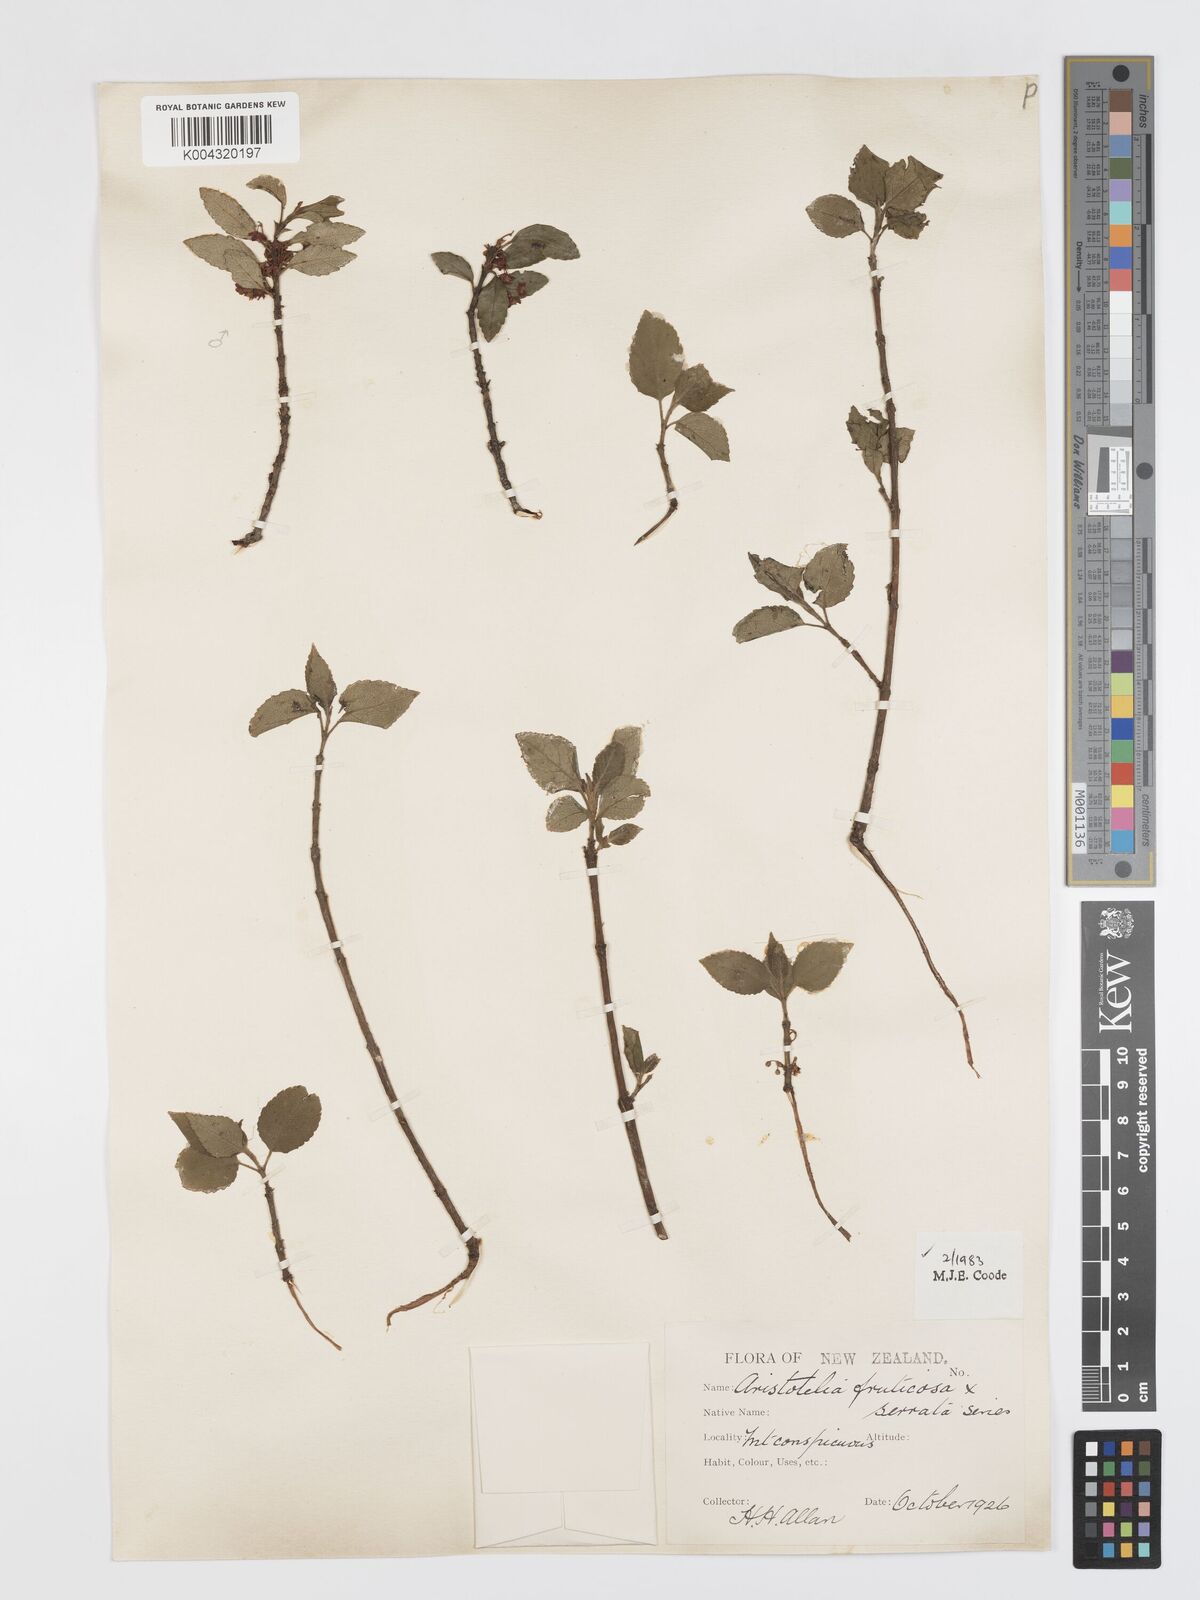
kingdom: Plantae
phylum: Tracheophyta
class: Magnoliopsida
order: Oxalidales
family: Elaeocarpaceae
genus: Aristotelia
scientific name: Aristotelia fruticosa
